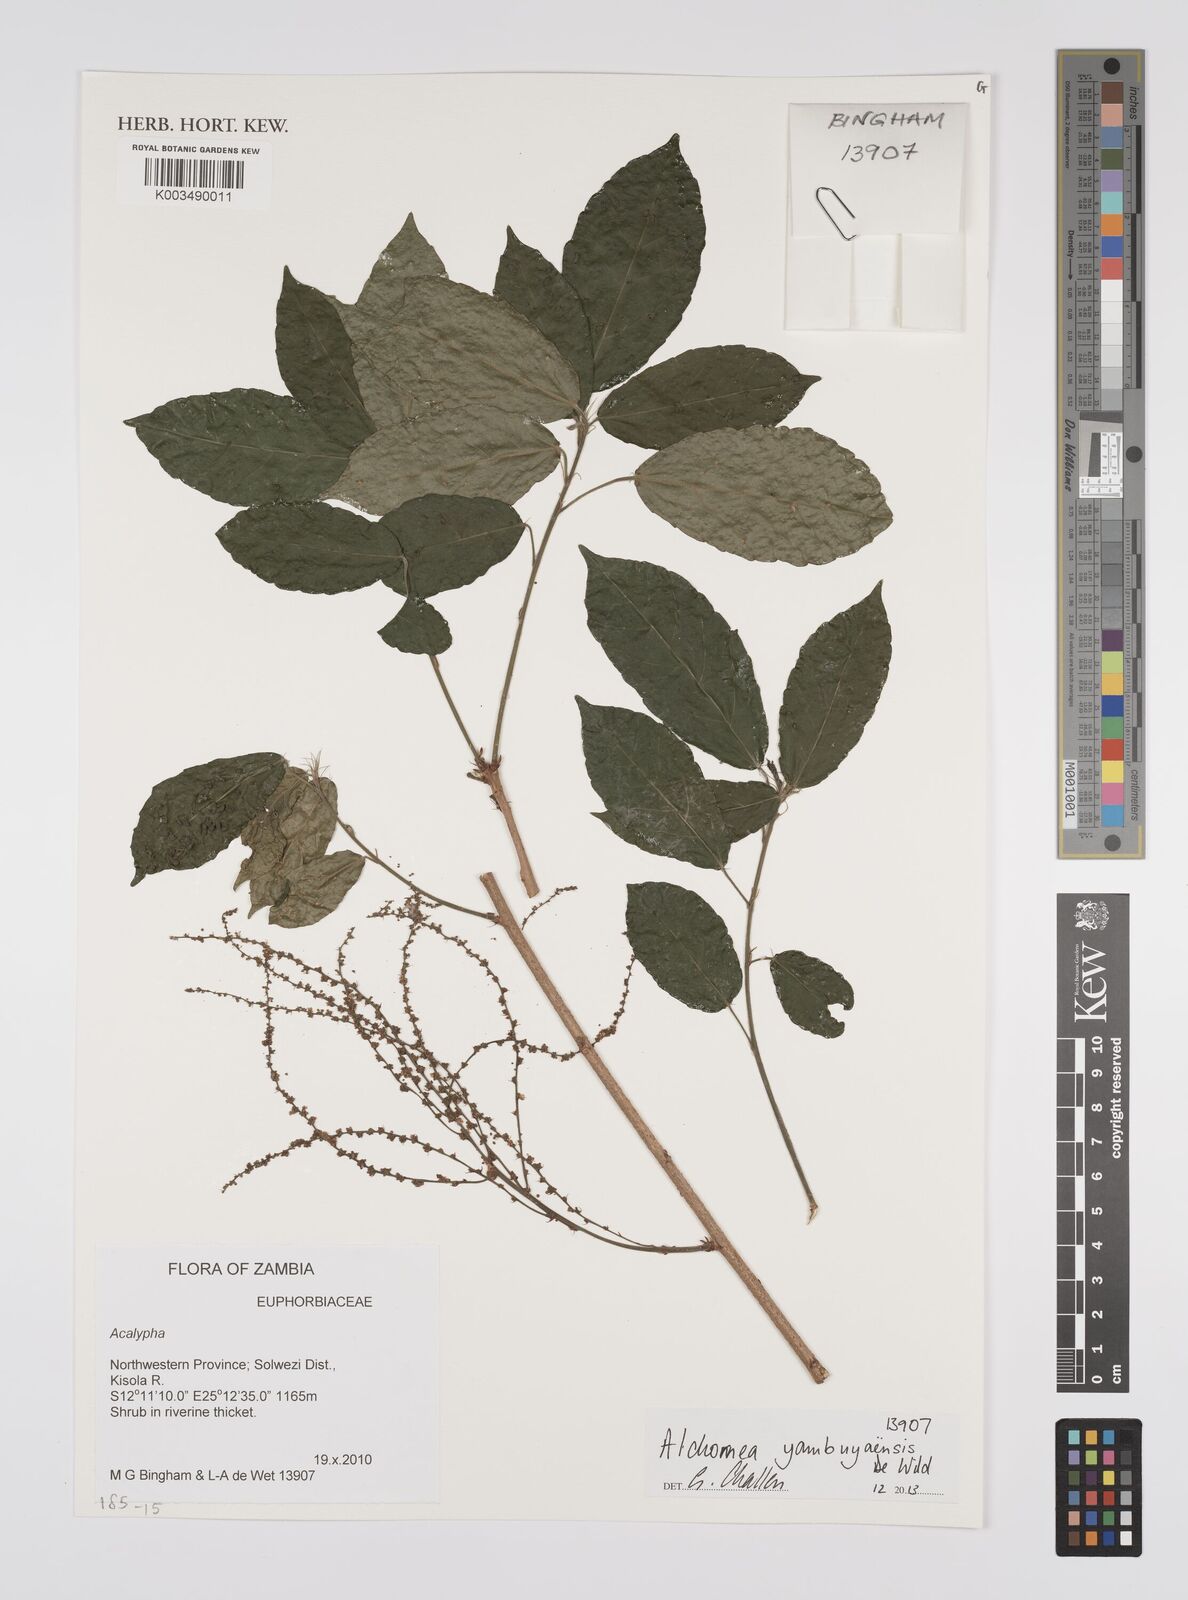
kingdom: Plantae
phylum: Tracheophyta
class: Magnoliopsida
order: Malpighiales
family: Euphorbiaceae
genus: Alchornea
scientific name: Alchornea yambuyaensis
